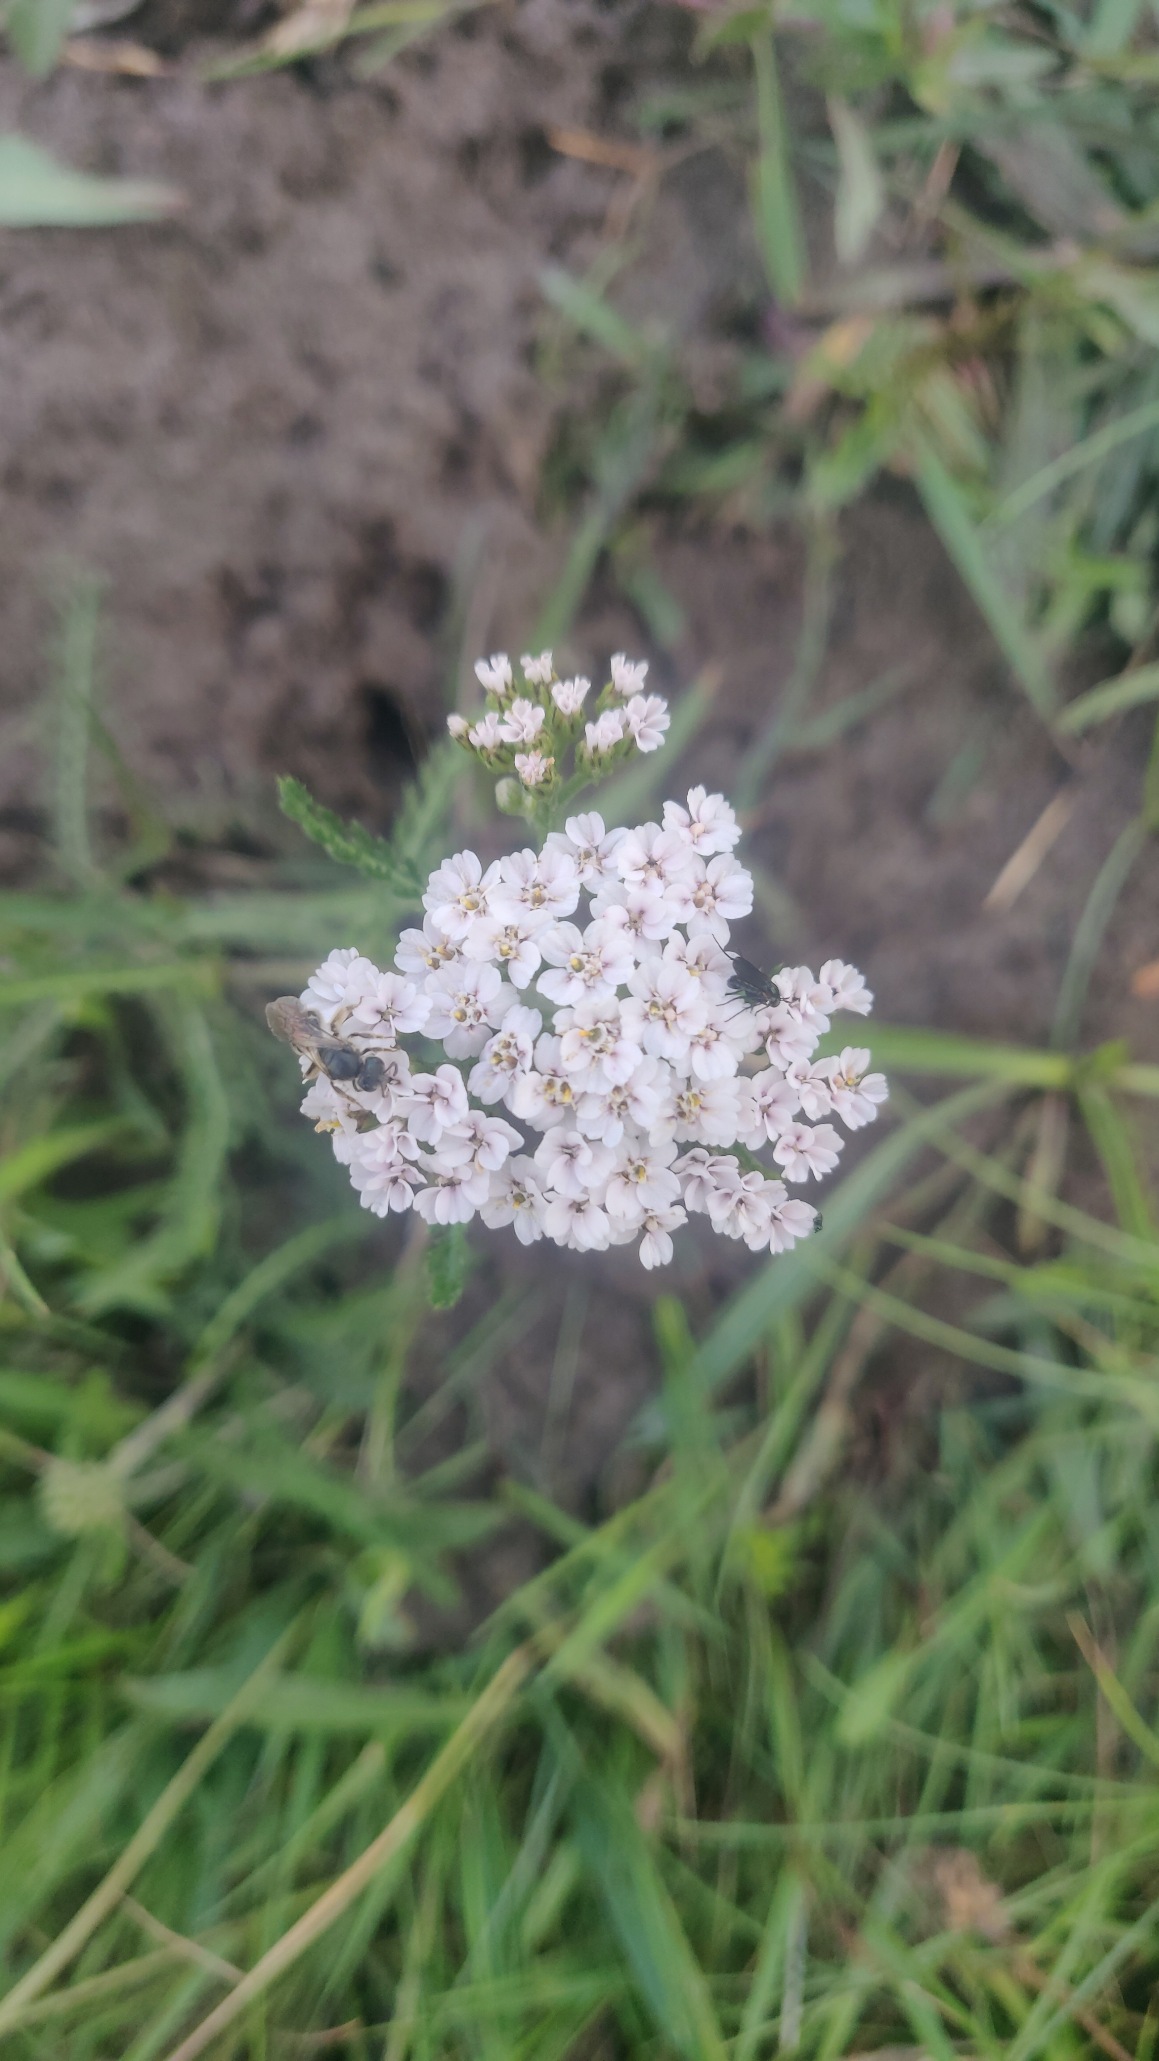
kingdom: Plantae
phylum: Tracheophyta
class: Magnoliopsida
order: Asterales
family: Asteraceae
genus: Achillea
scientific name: Achillea millefolium
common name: Almindelig røllike
